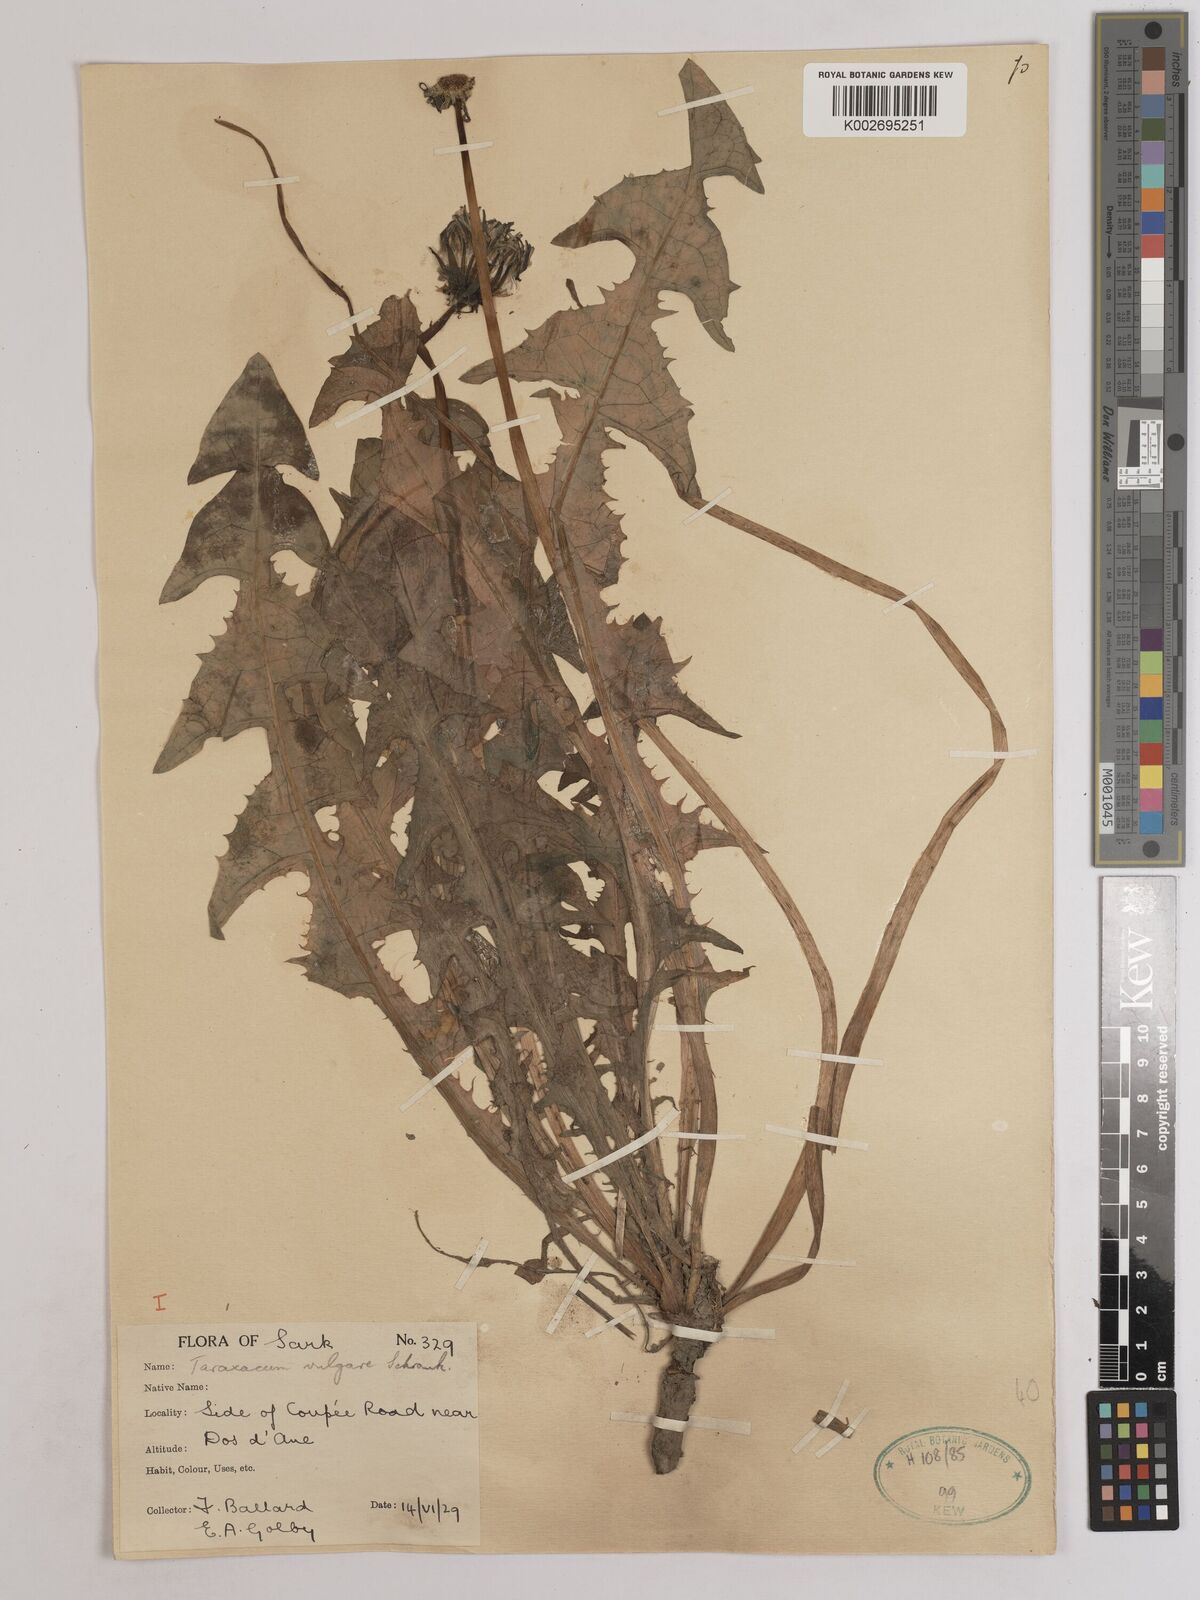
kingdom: Plantae
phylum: Tracheophyta
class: Magnoliopsida
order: Asterales
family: Asteraceae
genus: Taraxacum
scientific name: Taraxacum officinale
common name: Common dandelion
